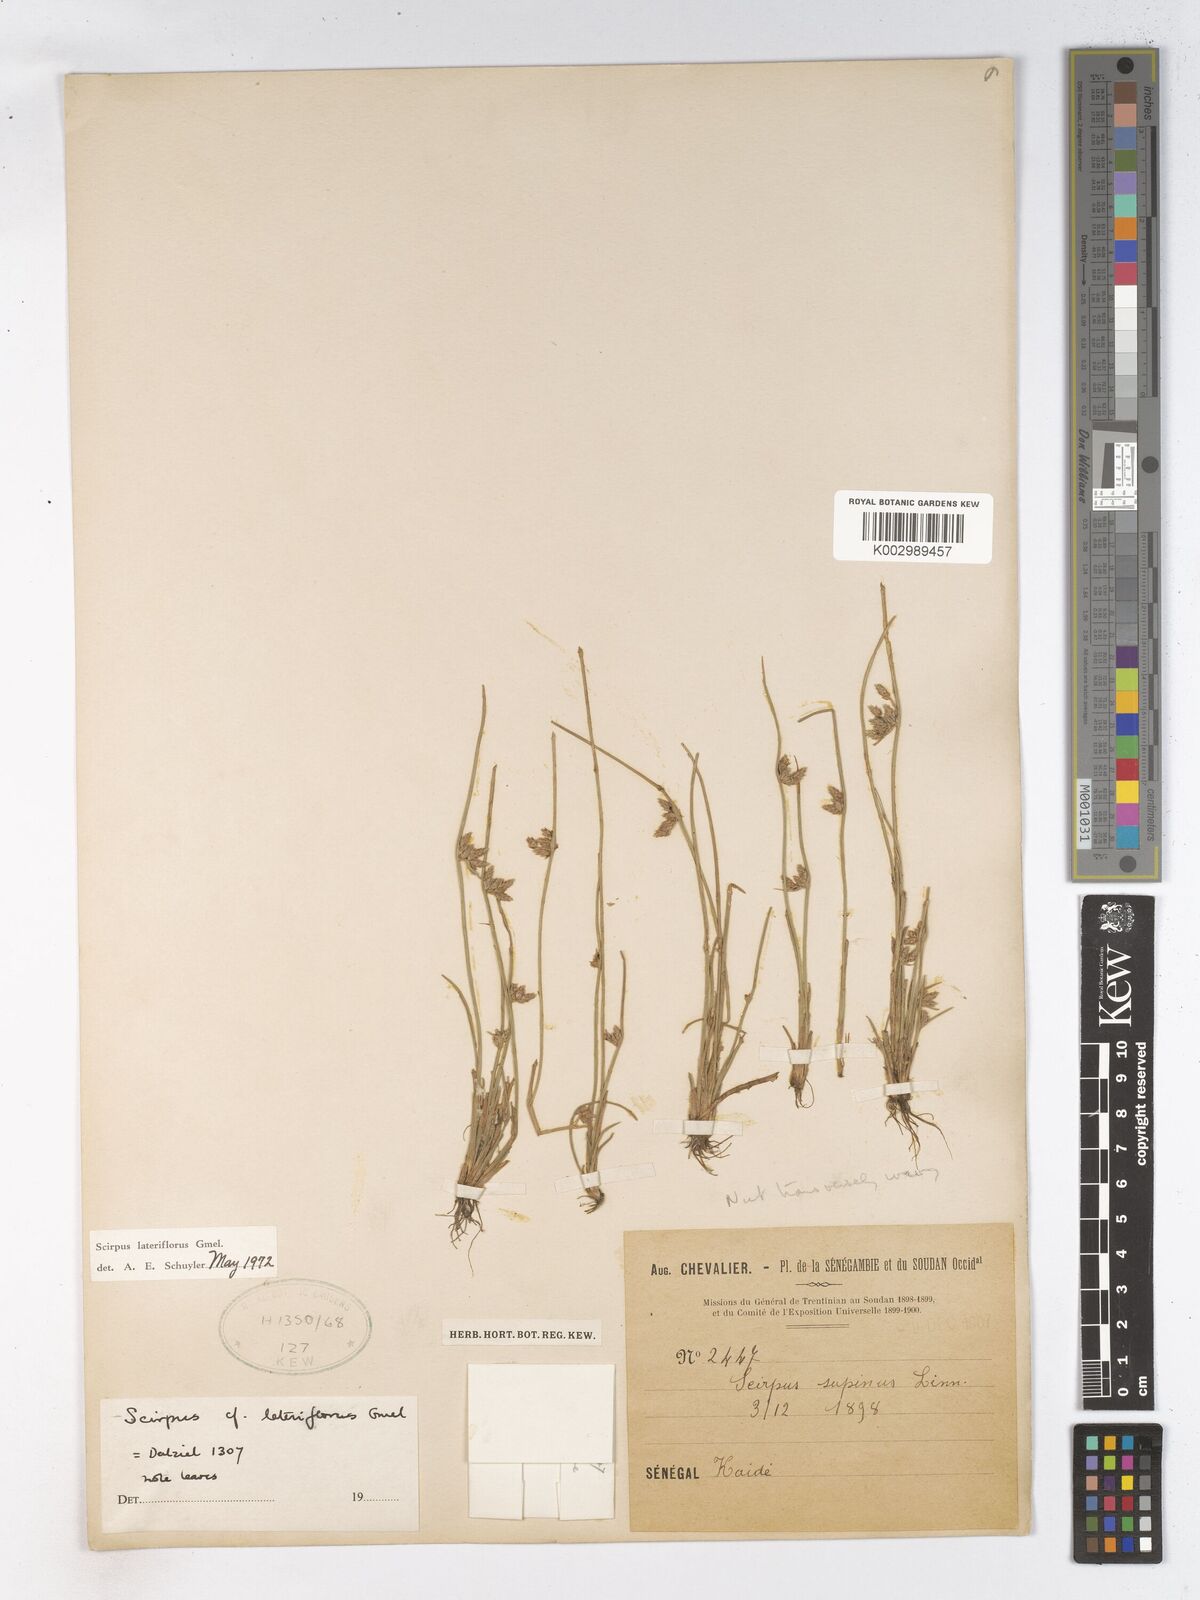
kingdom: Plantae
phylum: Tracheophyta
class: Liliopsida
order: Poales
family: Cyperaceae
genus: Schoenoplectiella
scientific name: Schoenoplectiella lateriflora
